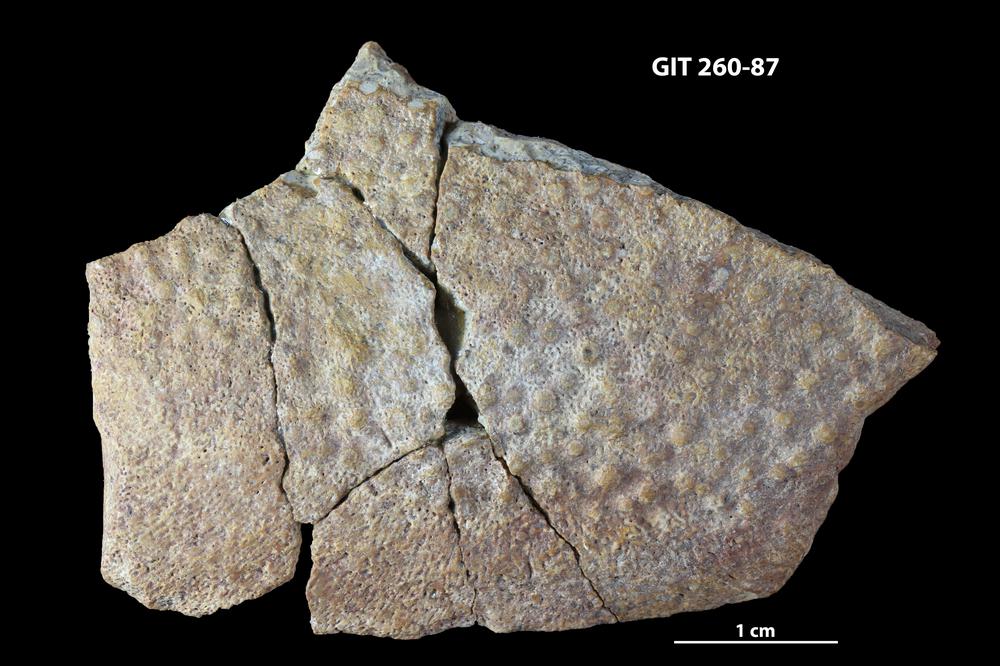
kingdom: Animalia
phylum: Chordata
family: Homostiidae
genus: Homostius
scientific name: Homostius
